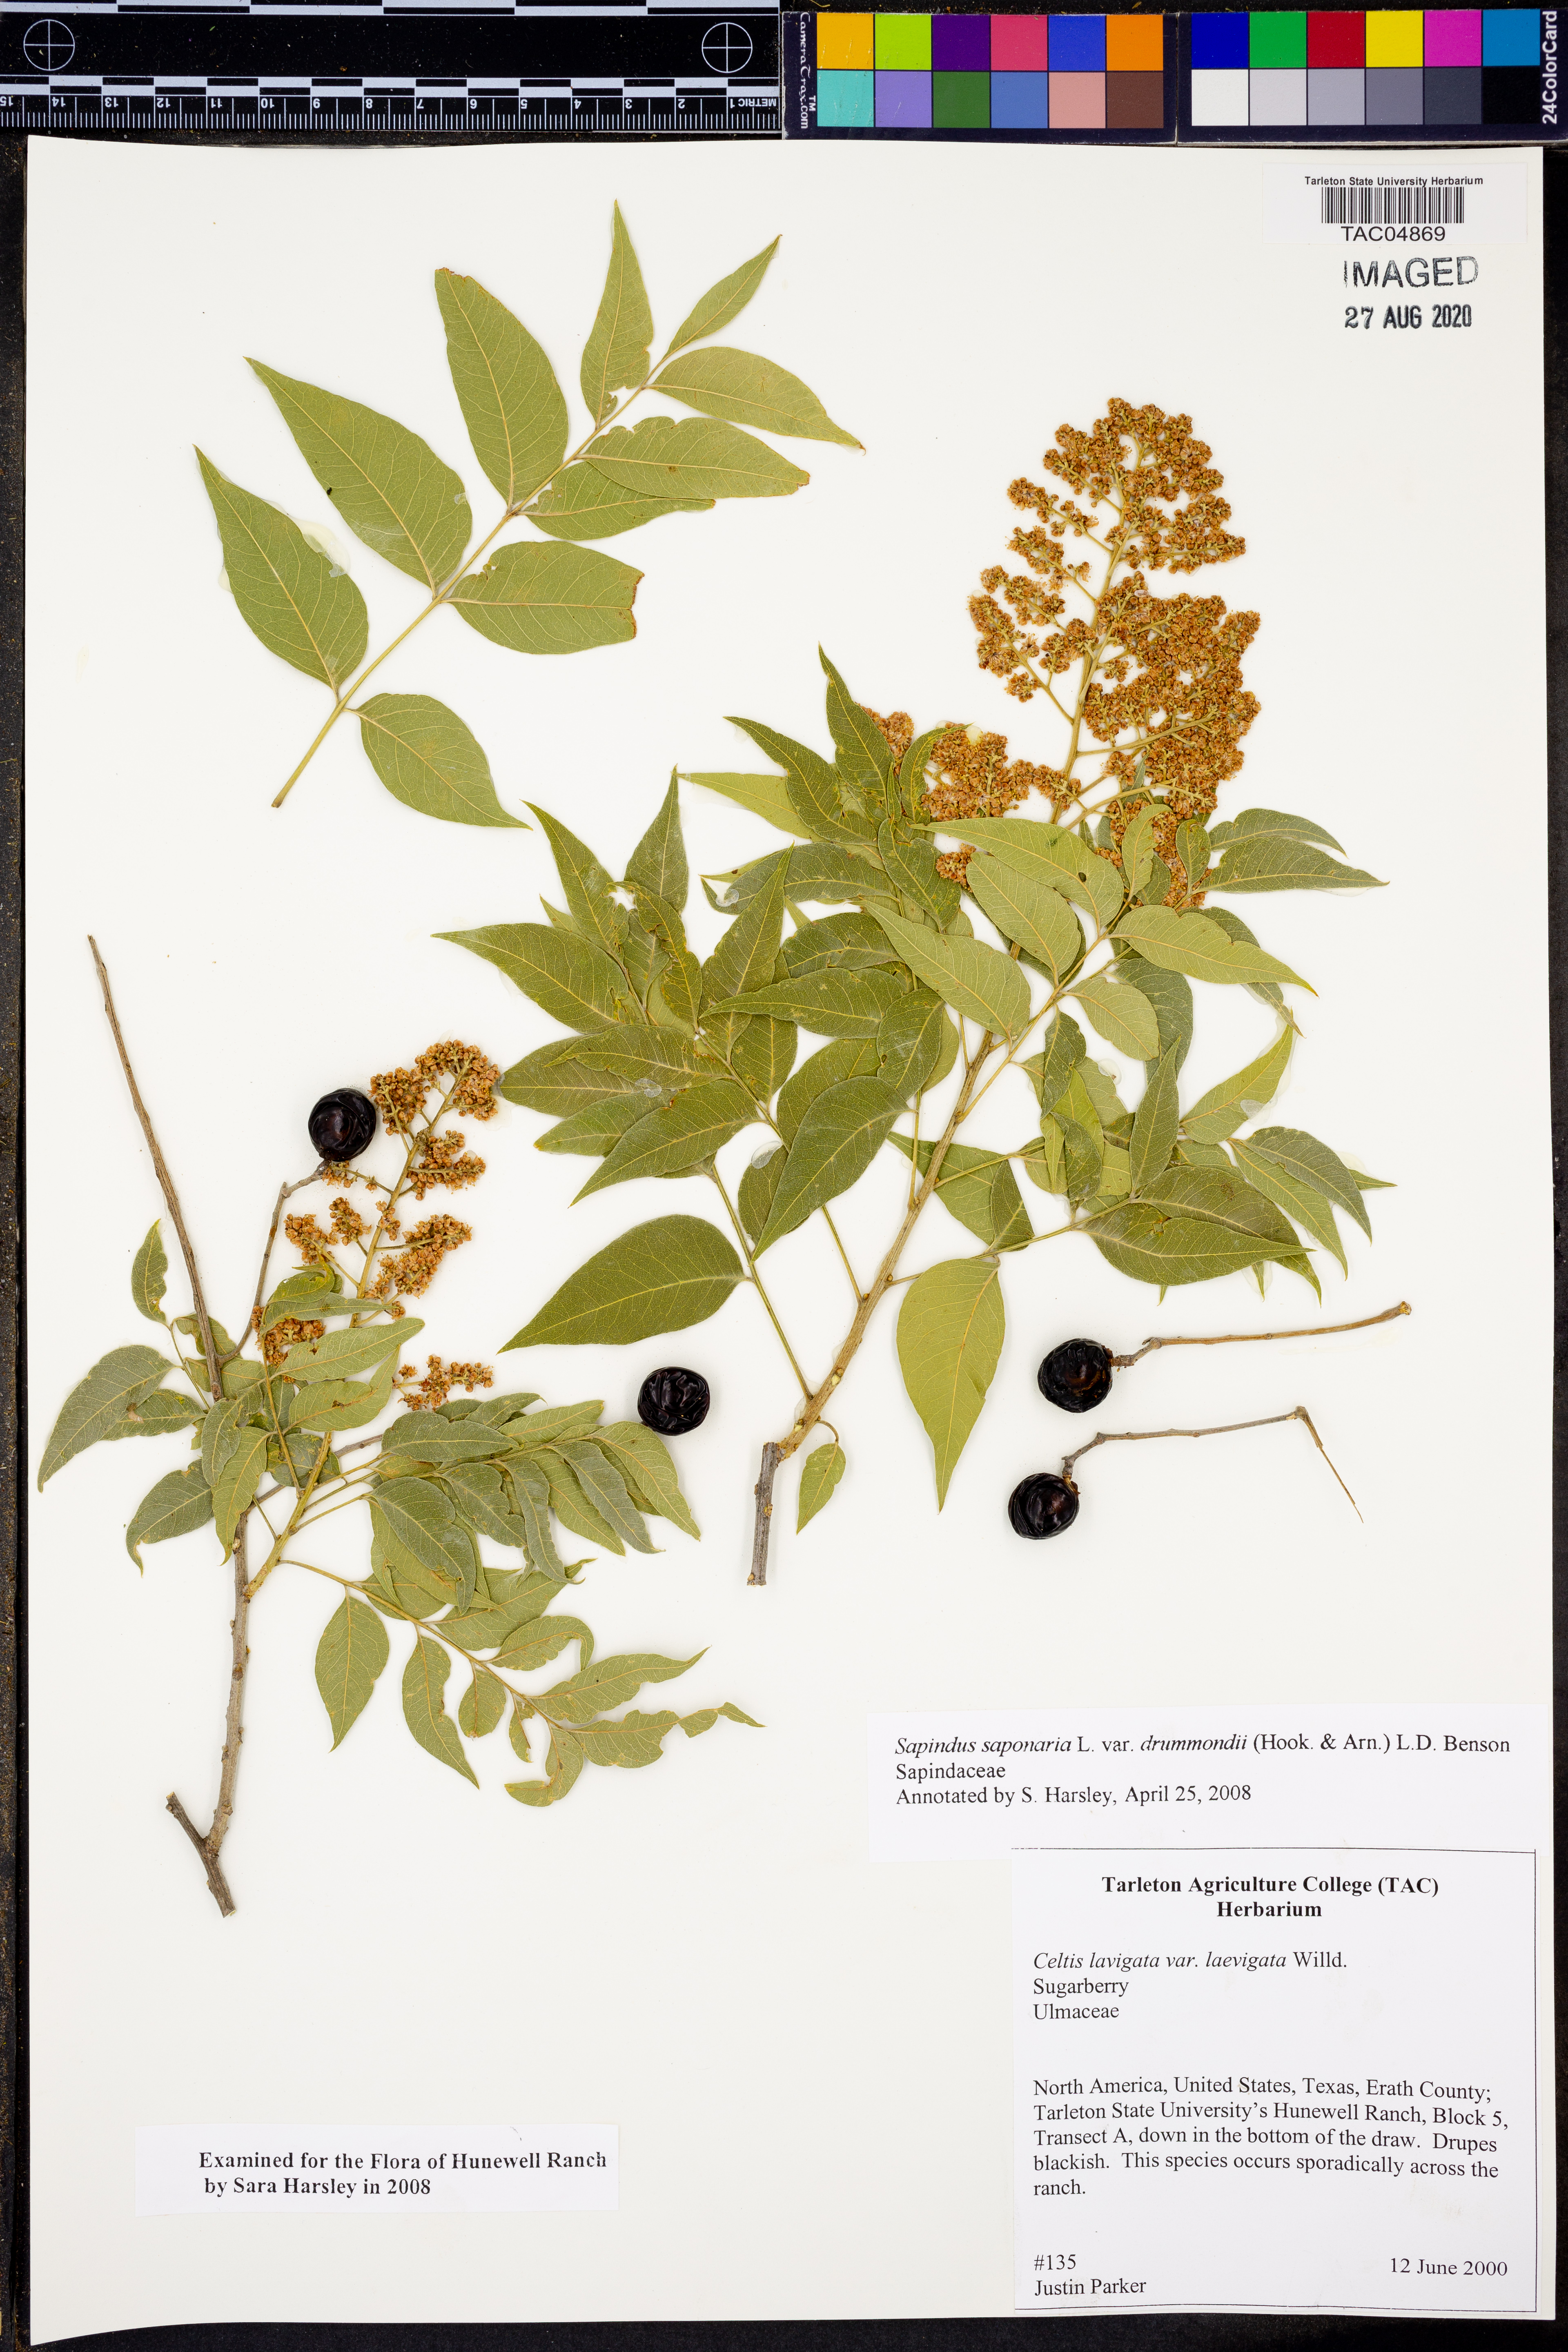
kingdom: Plantae
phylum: Tracheophyta
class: Magnoliopsida
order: Sapindales
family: Sapindaceae
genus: Sapindus
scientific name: Sapindus drummondii
